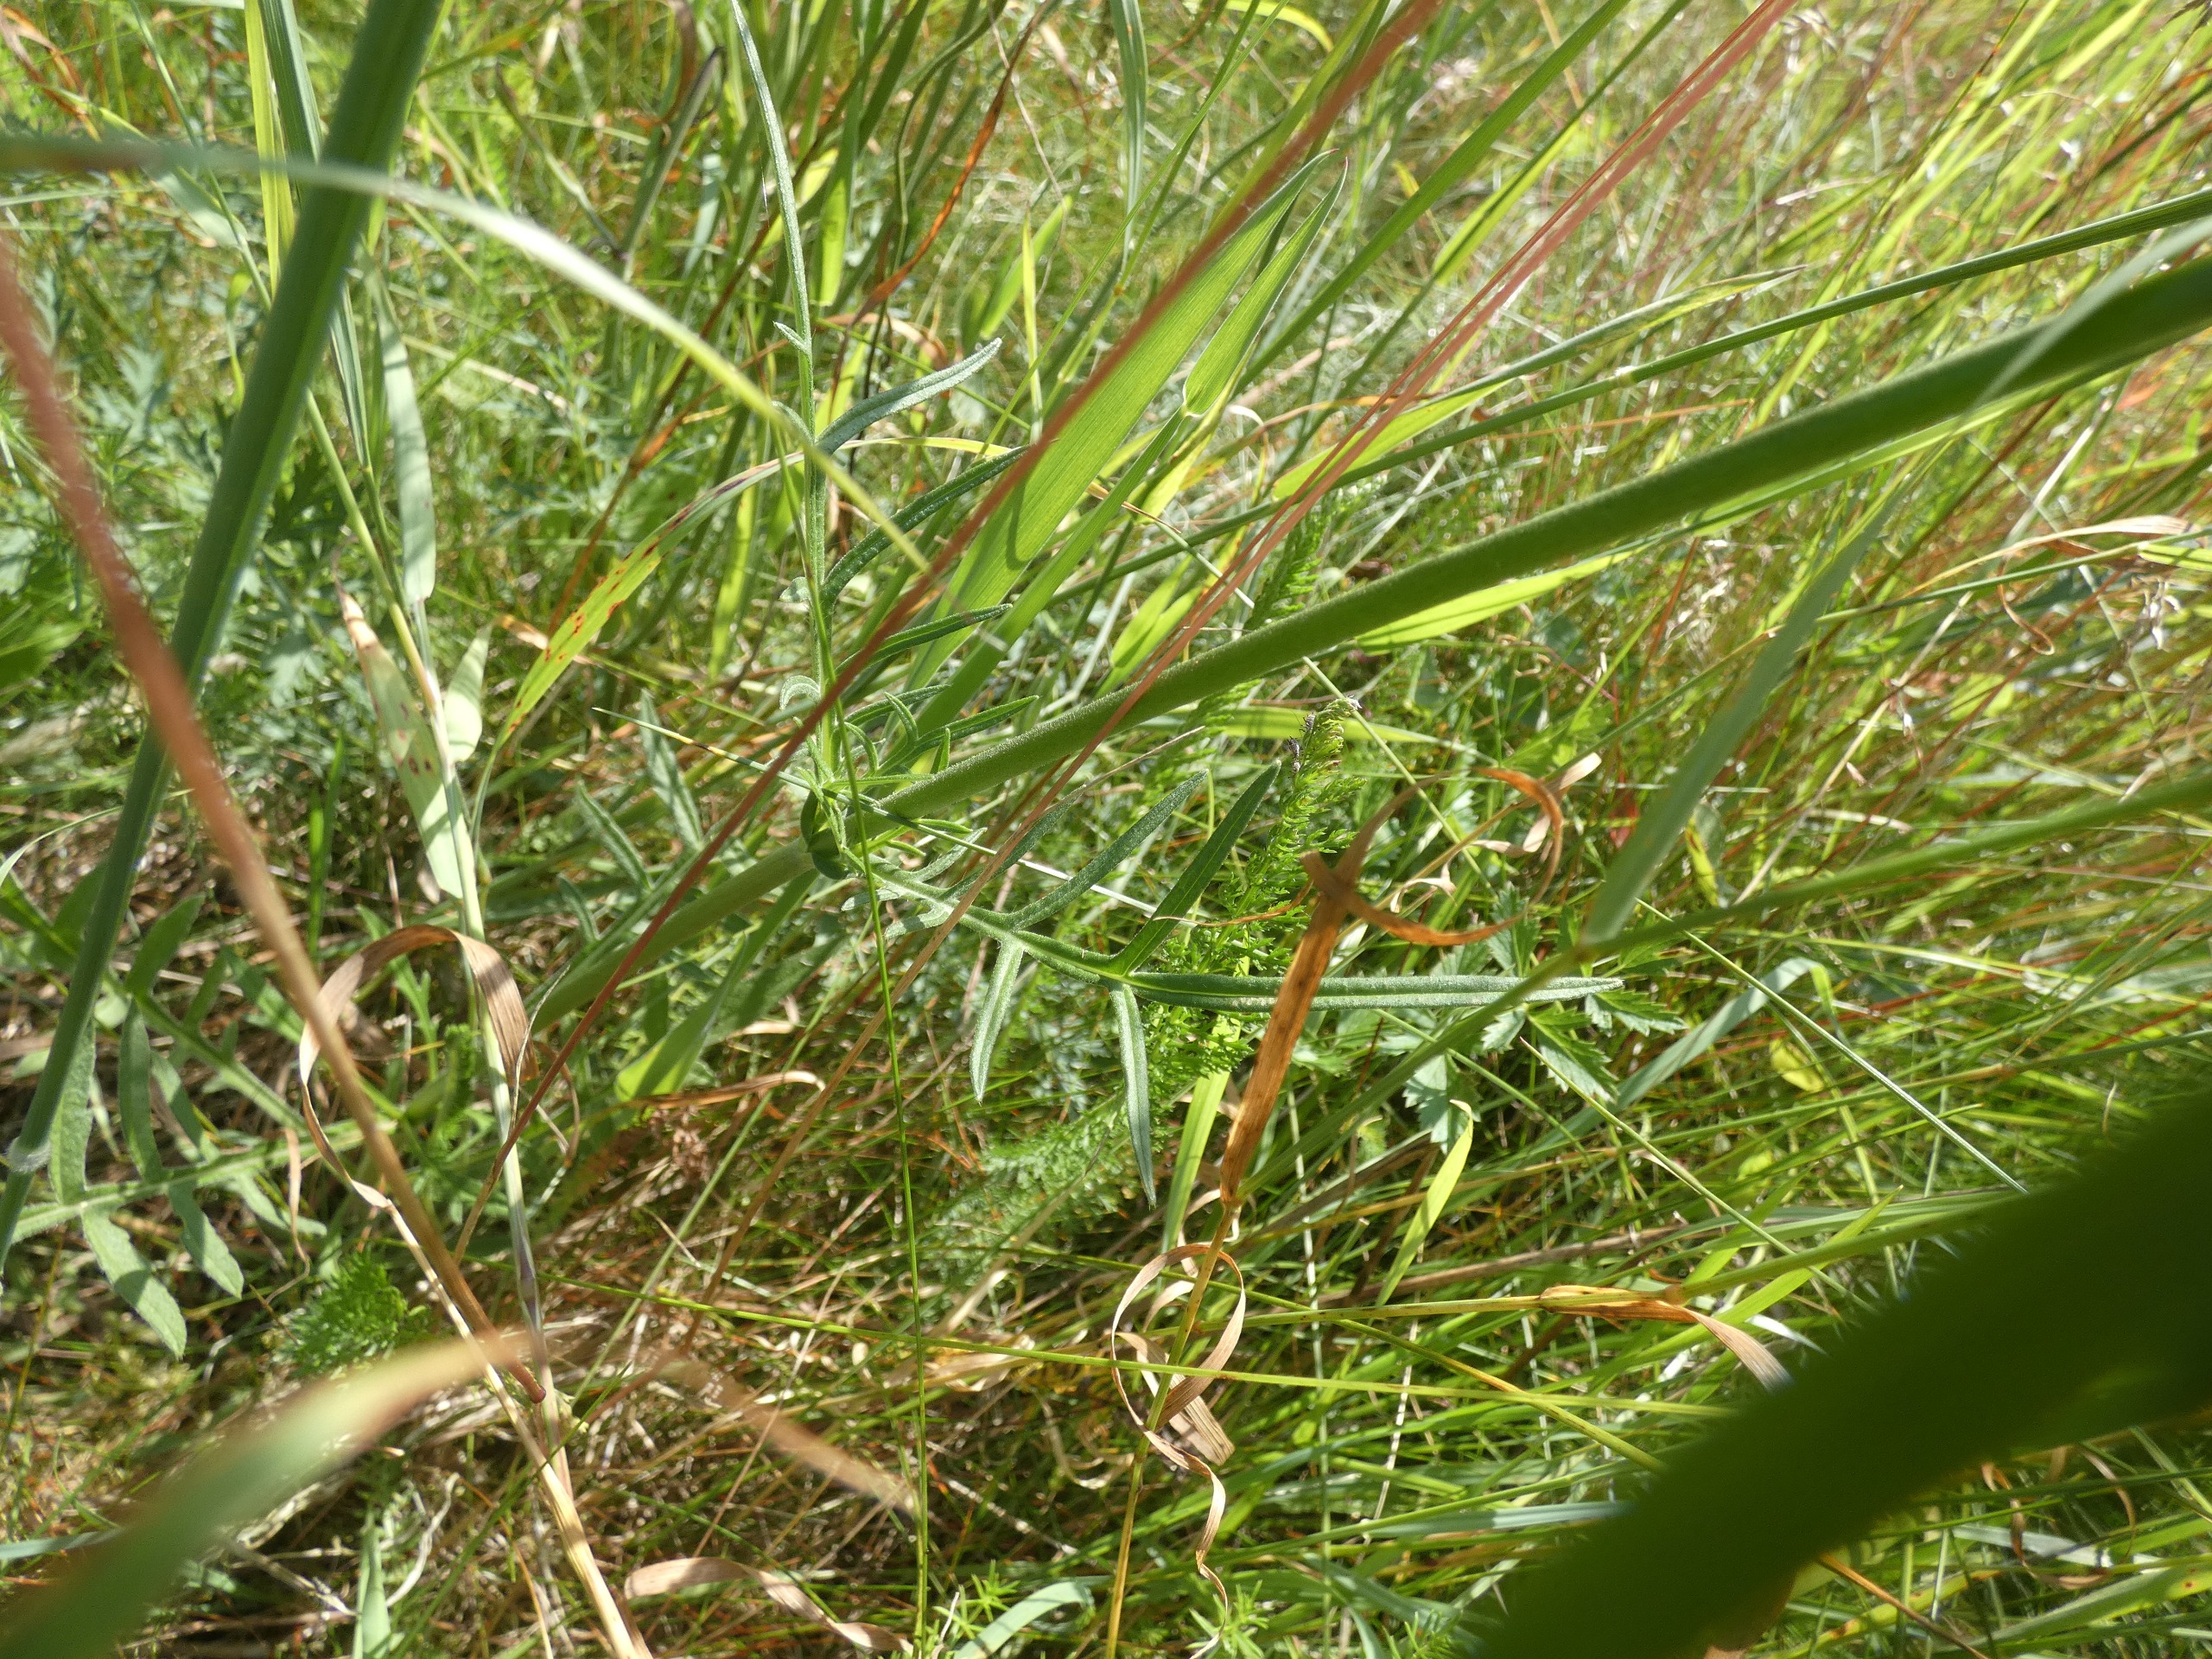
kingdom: Plantae
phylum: Tracheophyta
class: Magnoliopsida
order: Dipsacales
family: Caprifoliaceae
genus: Knautia
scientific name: Knautia arvensis
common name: Blåhat
